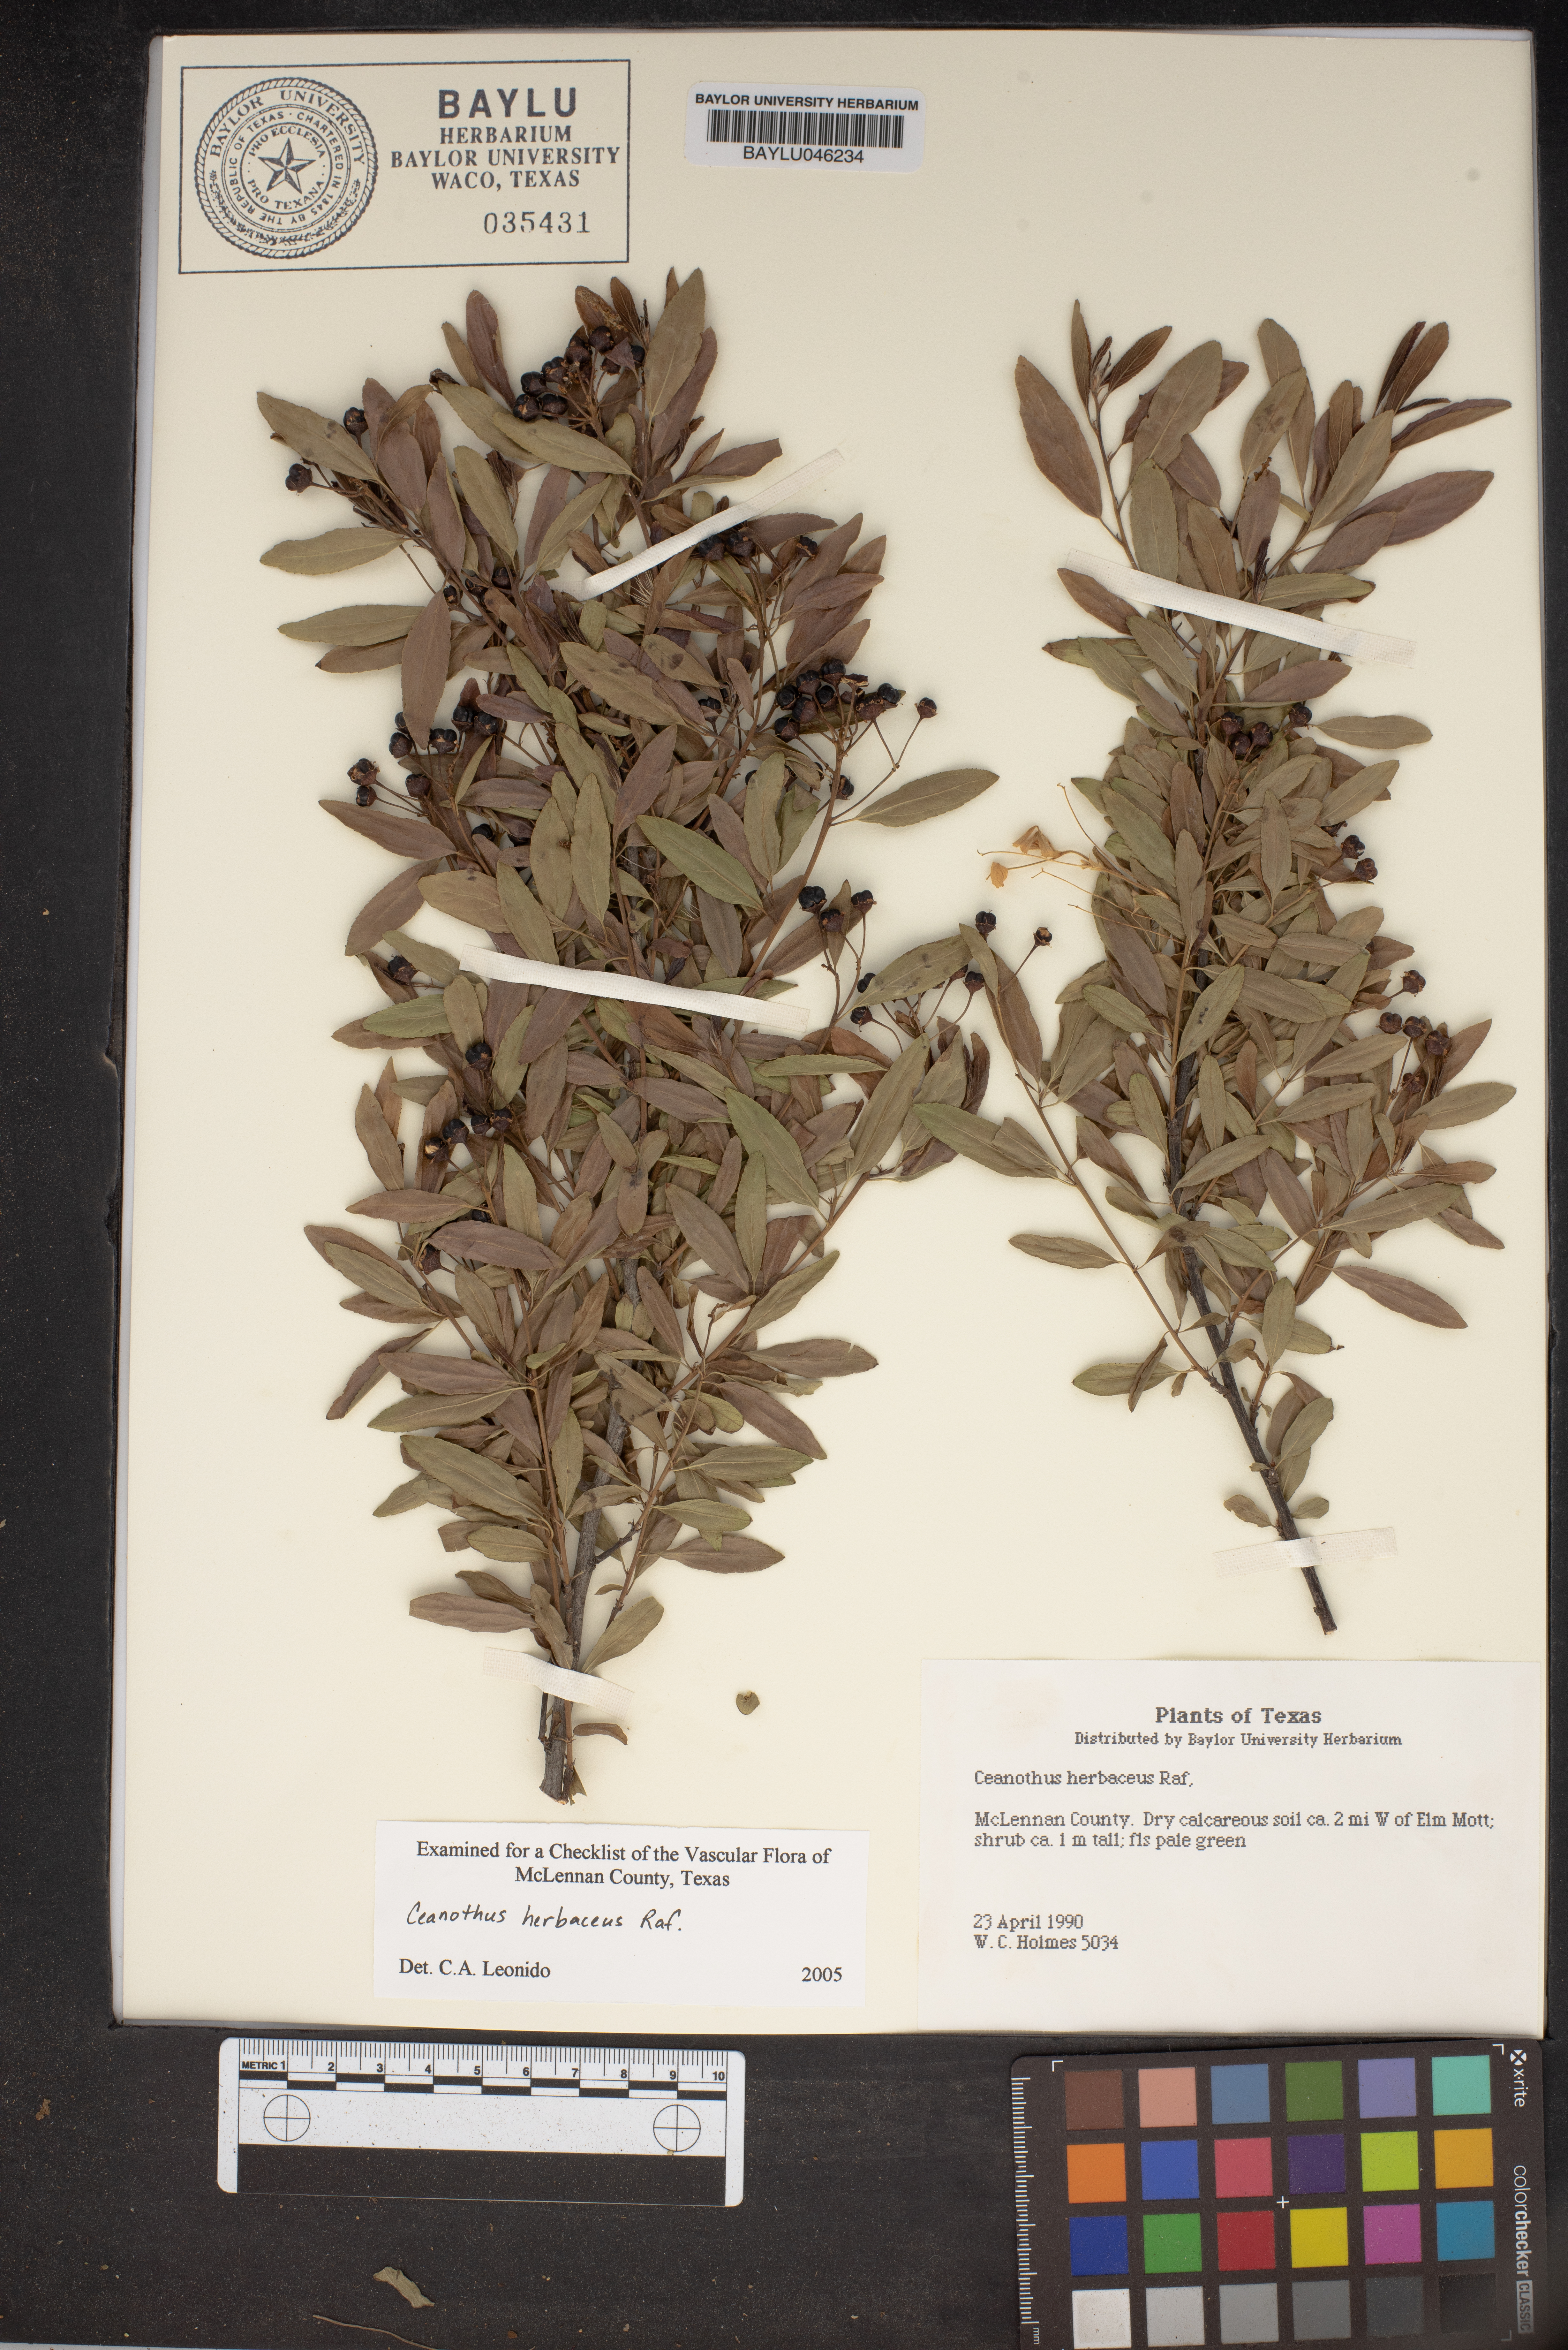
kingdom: Plantae
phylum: Tracheophyta
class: Magnoliopsida
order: Rosales
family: Rhamnaceae
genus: Ceanothus
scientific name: Ceanothus herbaceus
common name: Inland ceanothus
